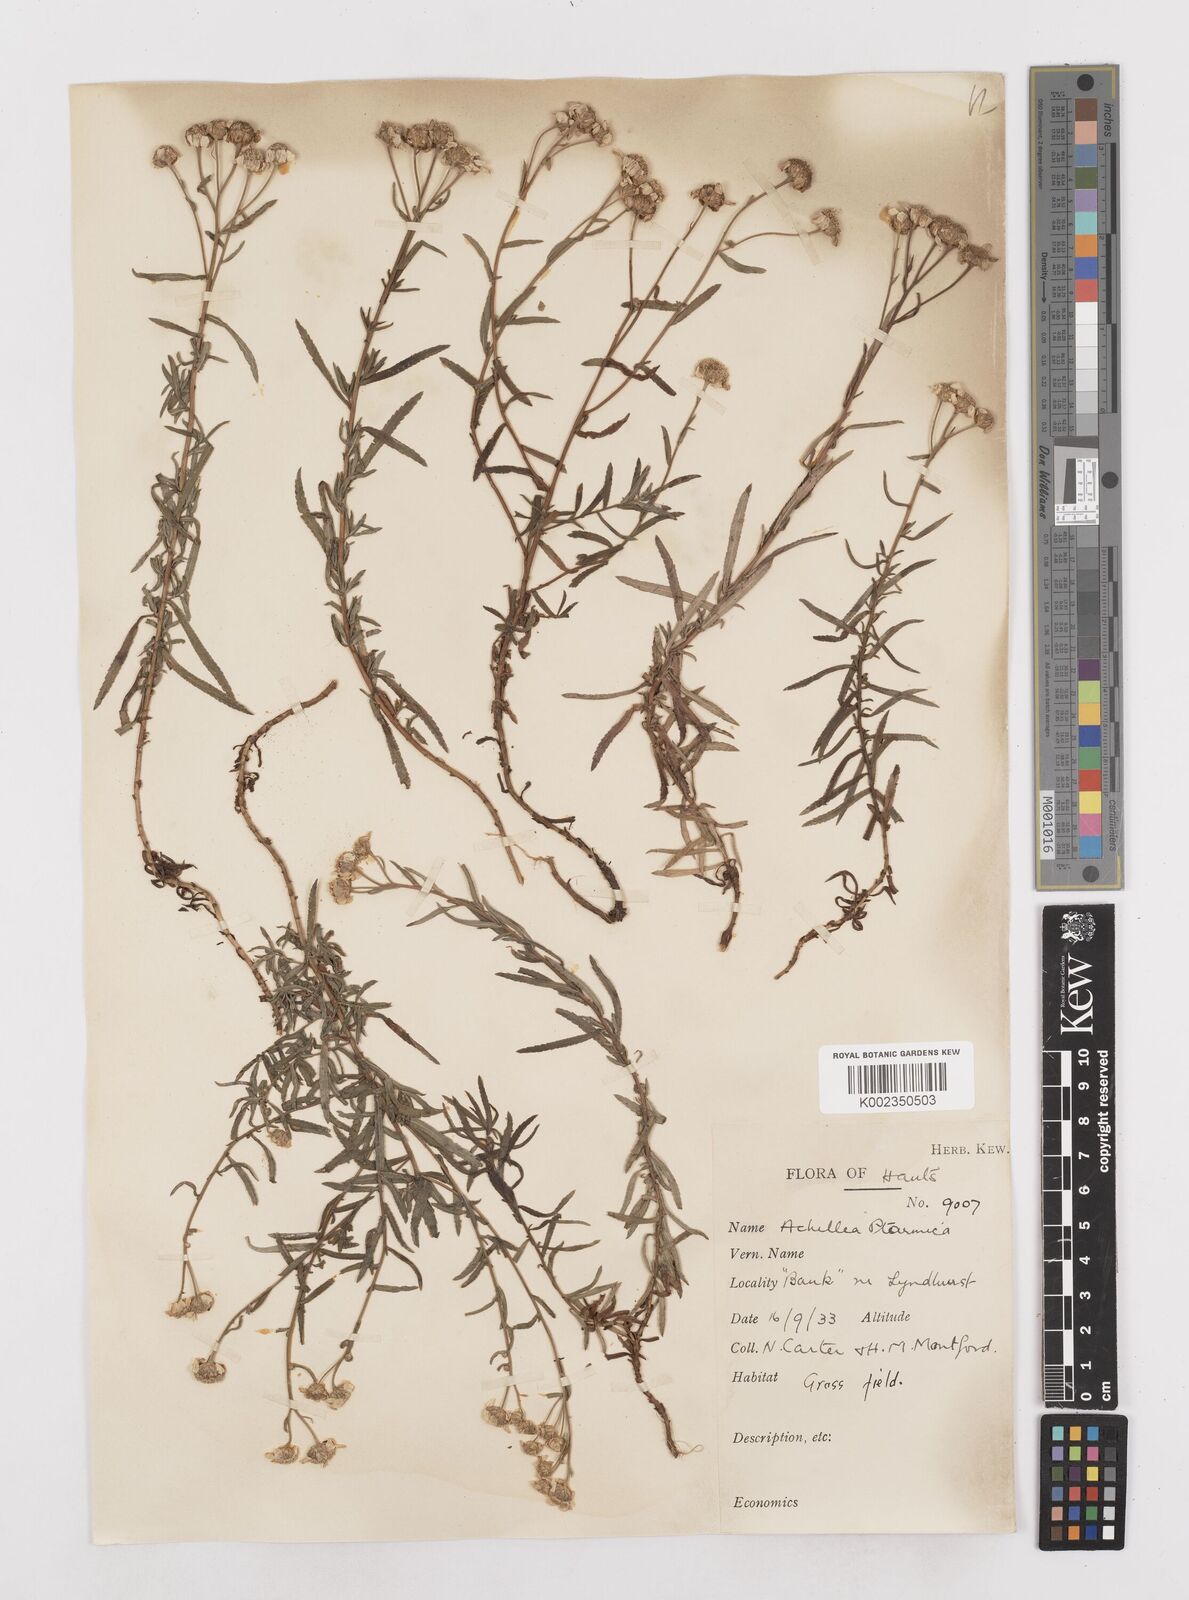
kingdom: Plantae
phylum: Tracheophyta
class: Magnoliopsida
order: Asterales
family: Asteraceae
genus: Achillea
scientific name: Achillea ptarmica
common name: Sneezeweed
